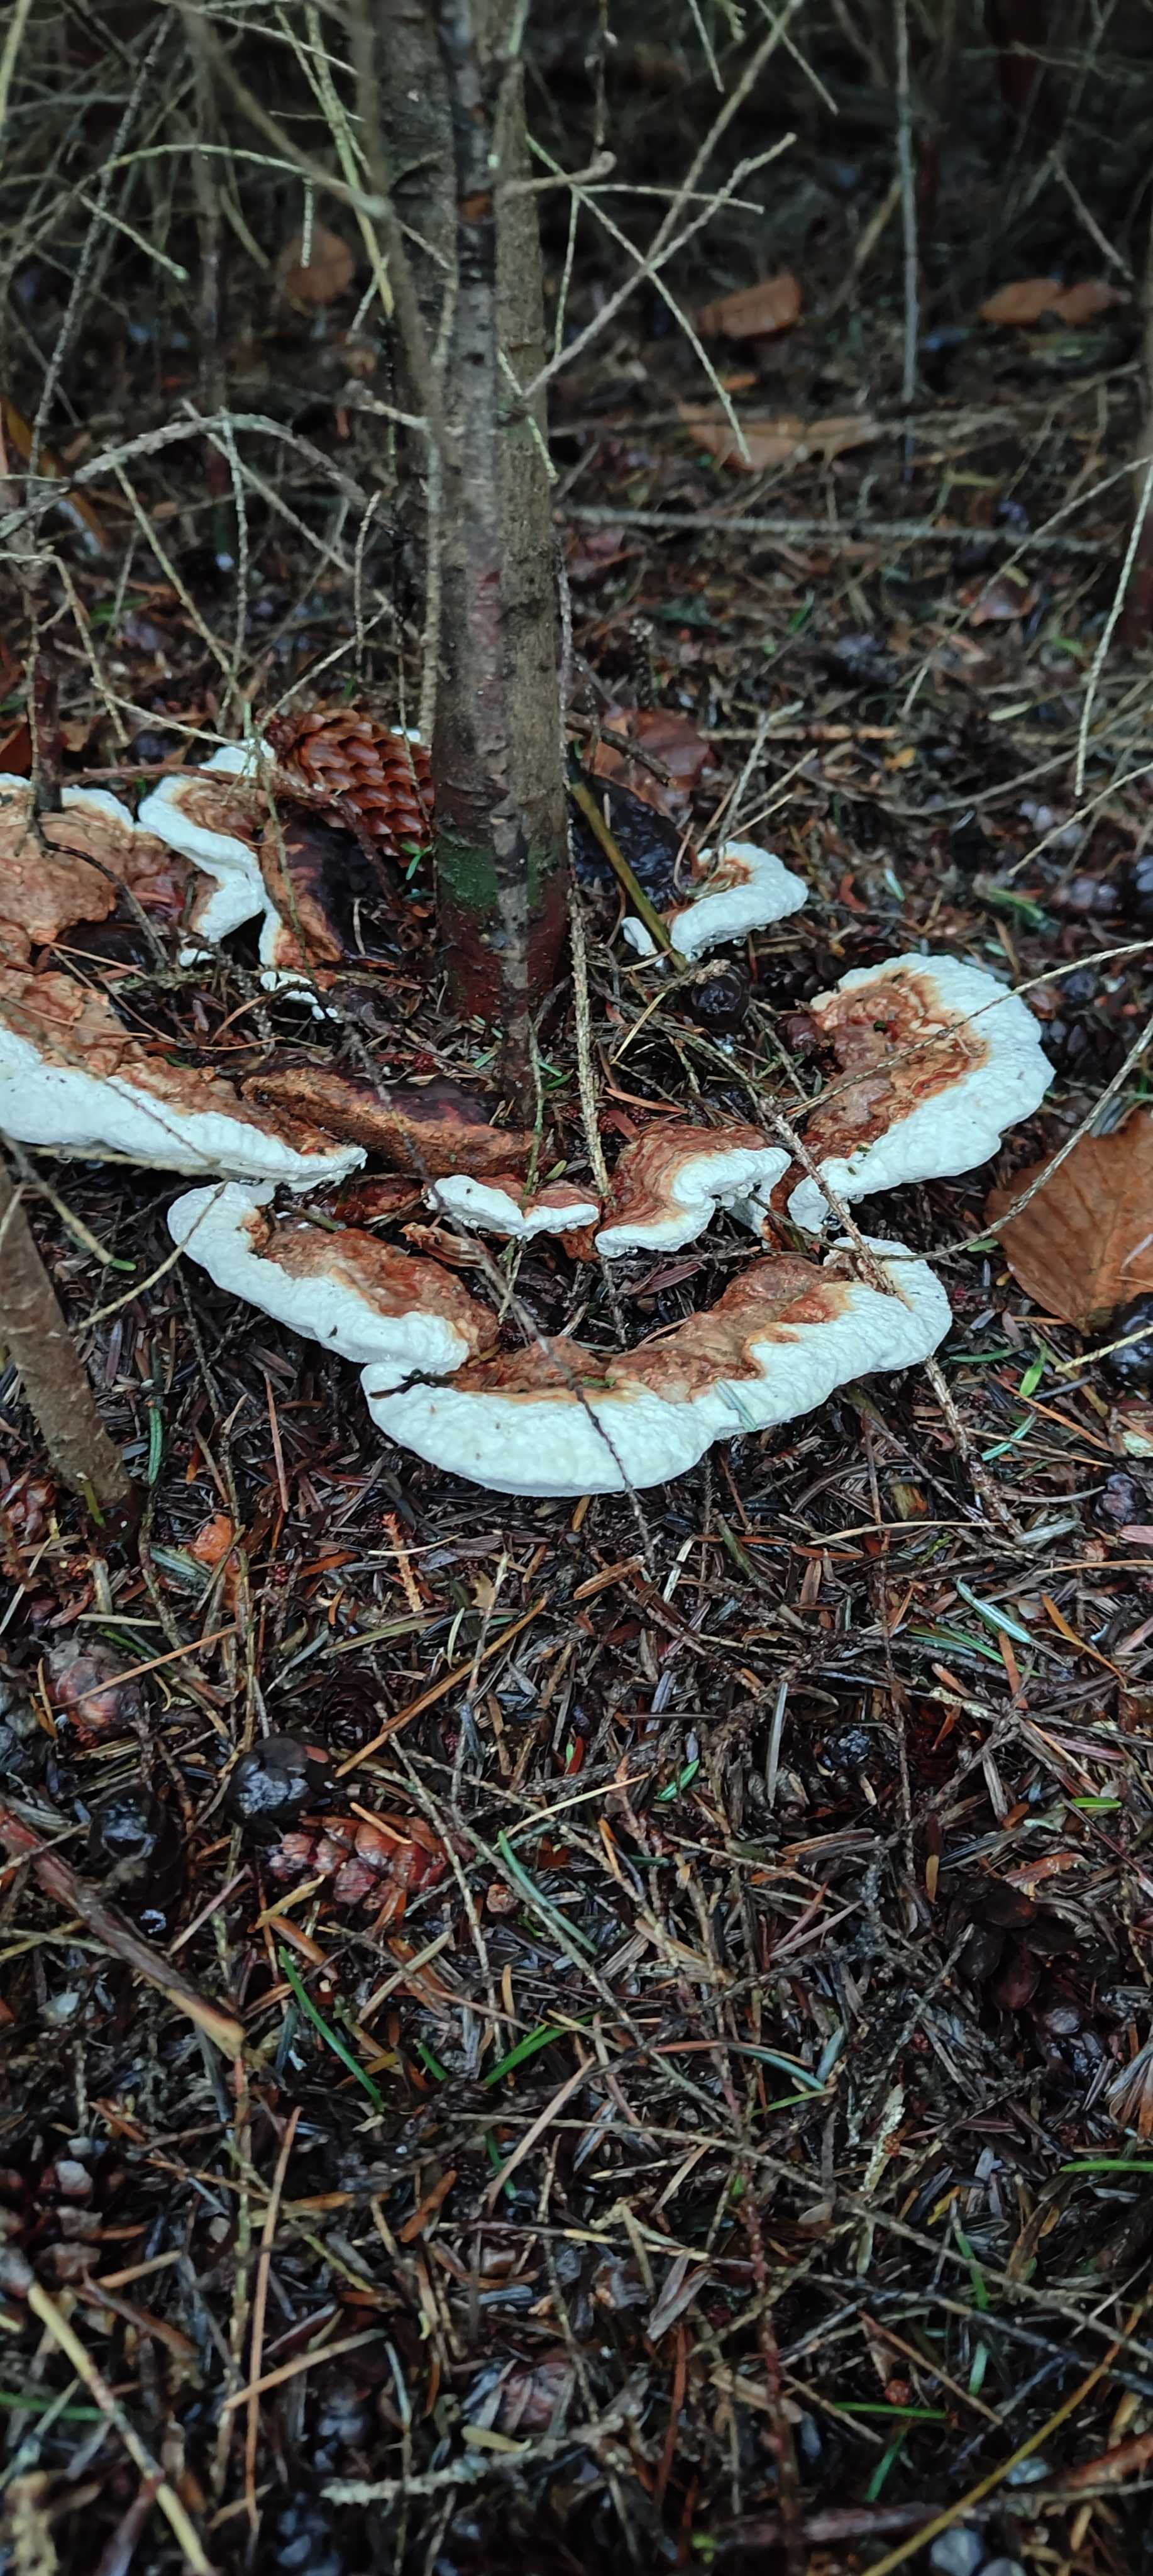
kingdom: Fungi
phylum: Basidiomycota
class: Agaricomycetes
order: Russulales
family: Bondarzewiaceae
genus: Heterobasidion
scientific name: Heterobasidion annosum
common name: almindelig rodfordærver
